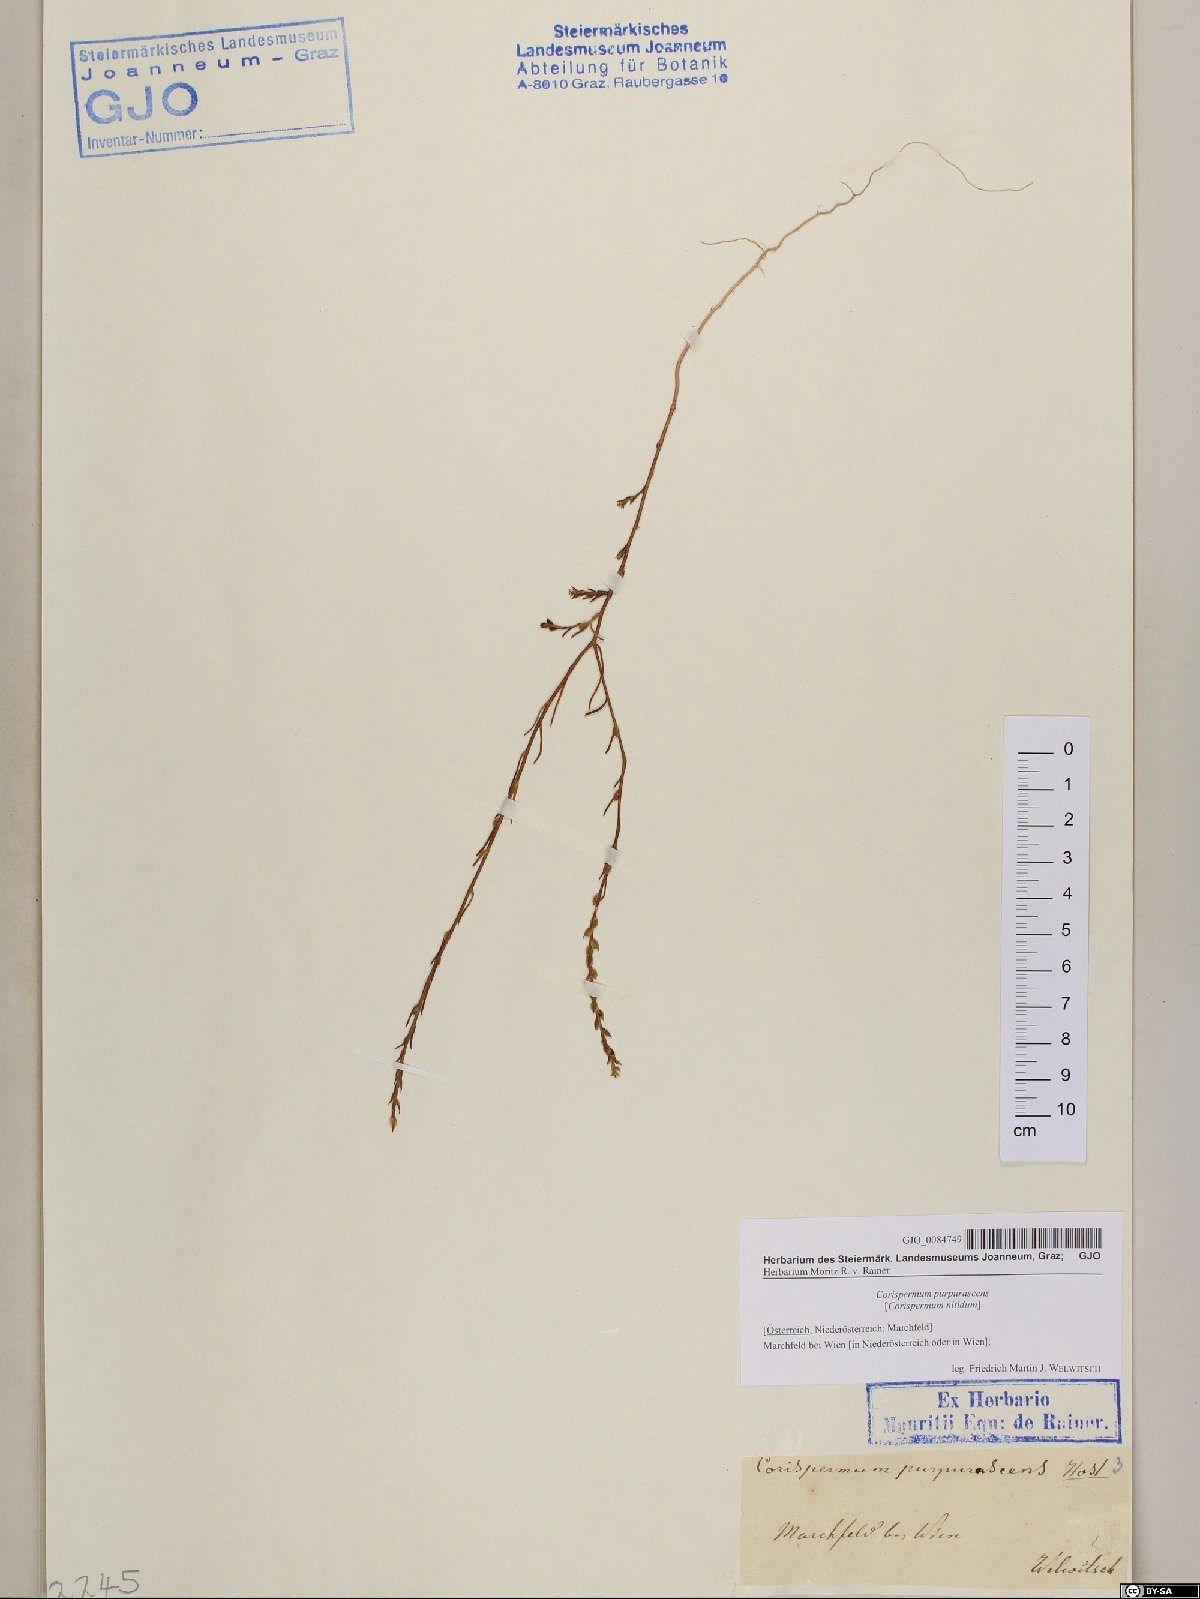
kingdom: Plantae
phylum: Tracheophyta
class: Magnoliopsida
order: Caryophyllales
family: Amaranthaceae
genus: Corispermum
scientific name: Corispermum nitidum
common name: Bugseed
